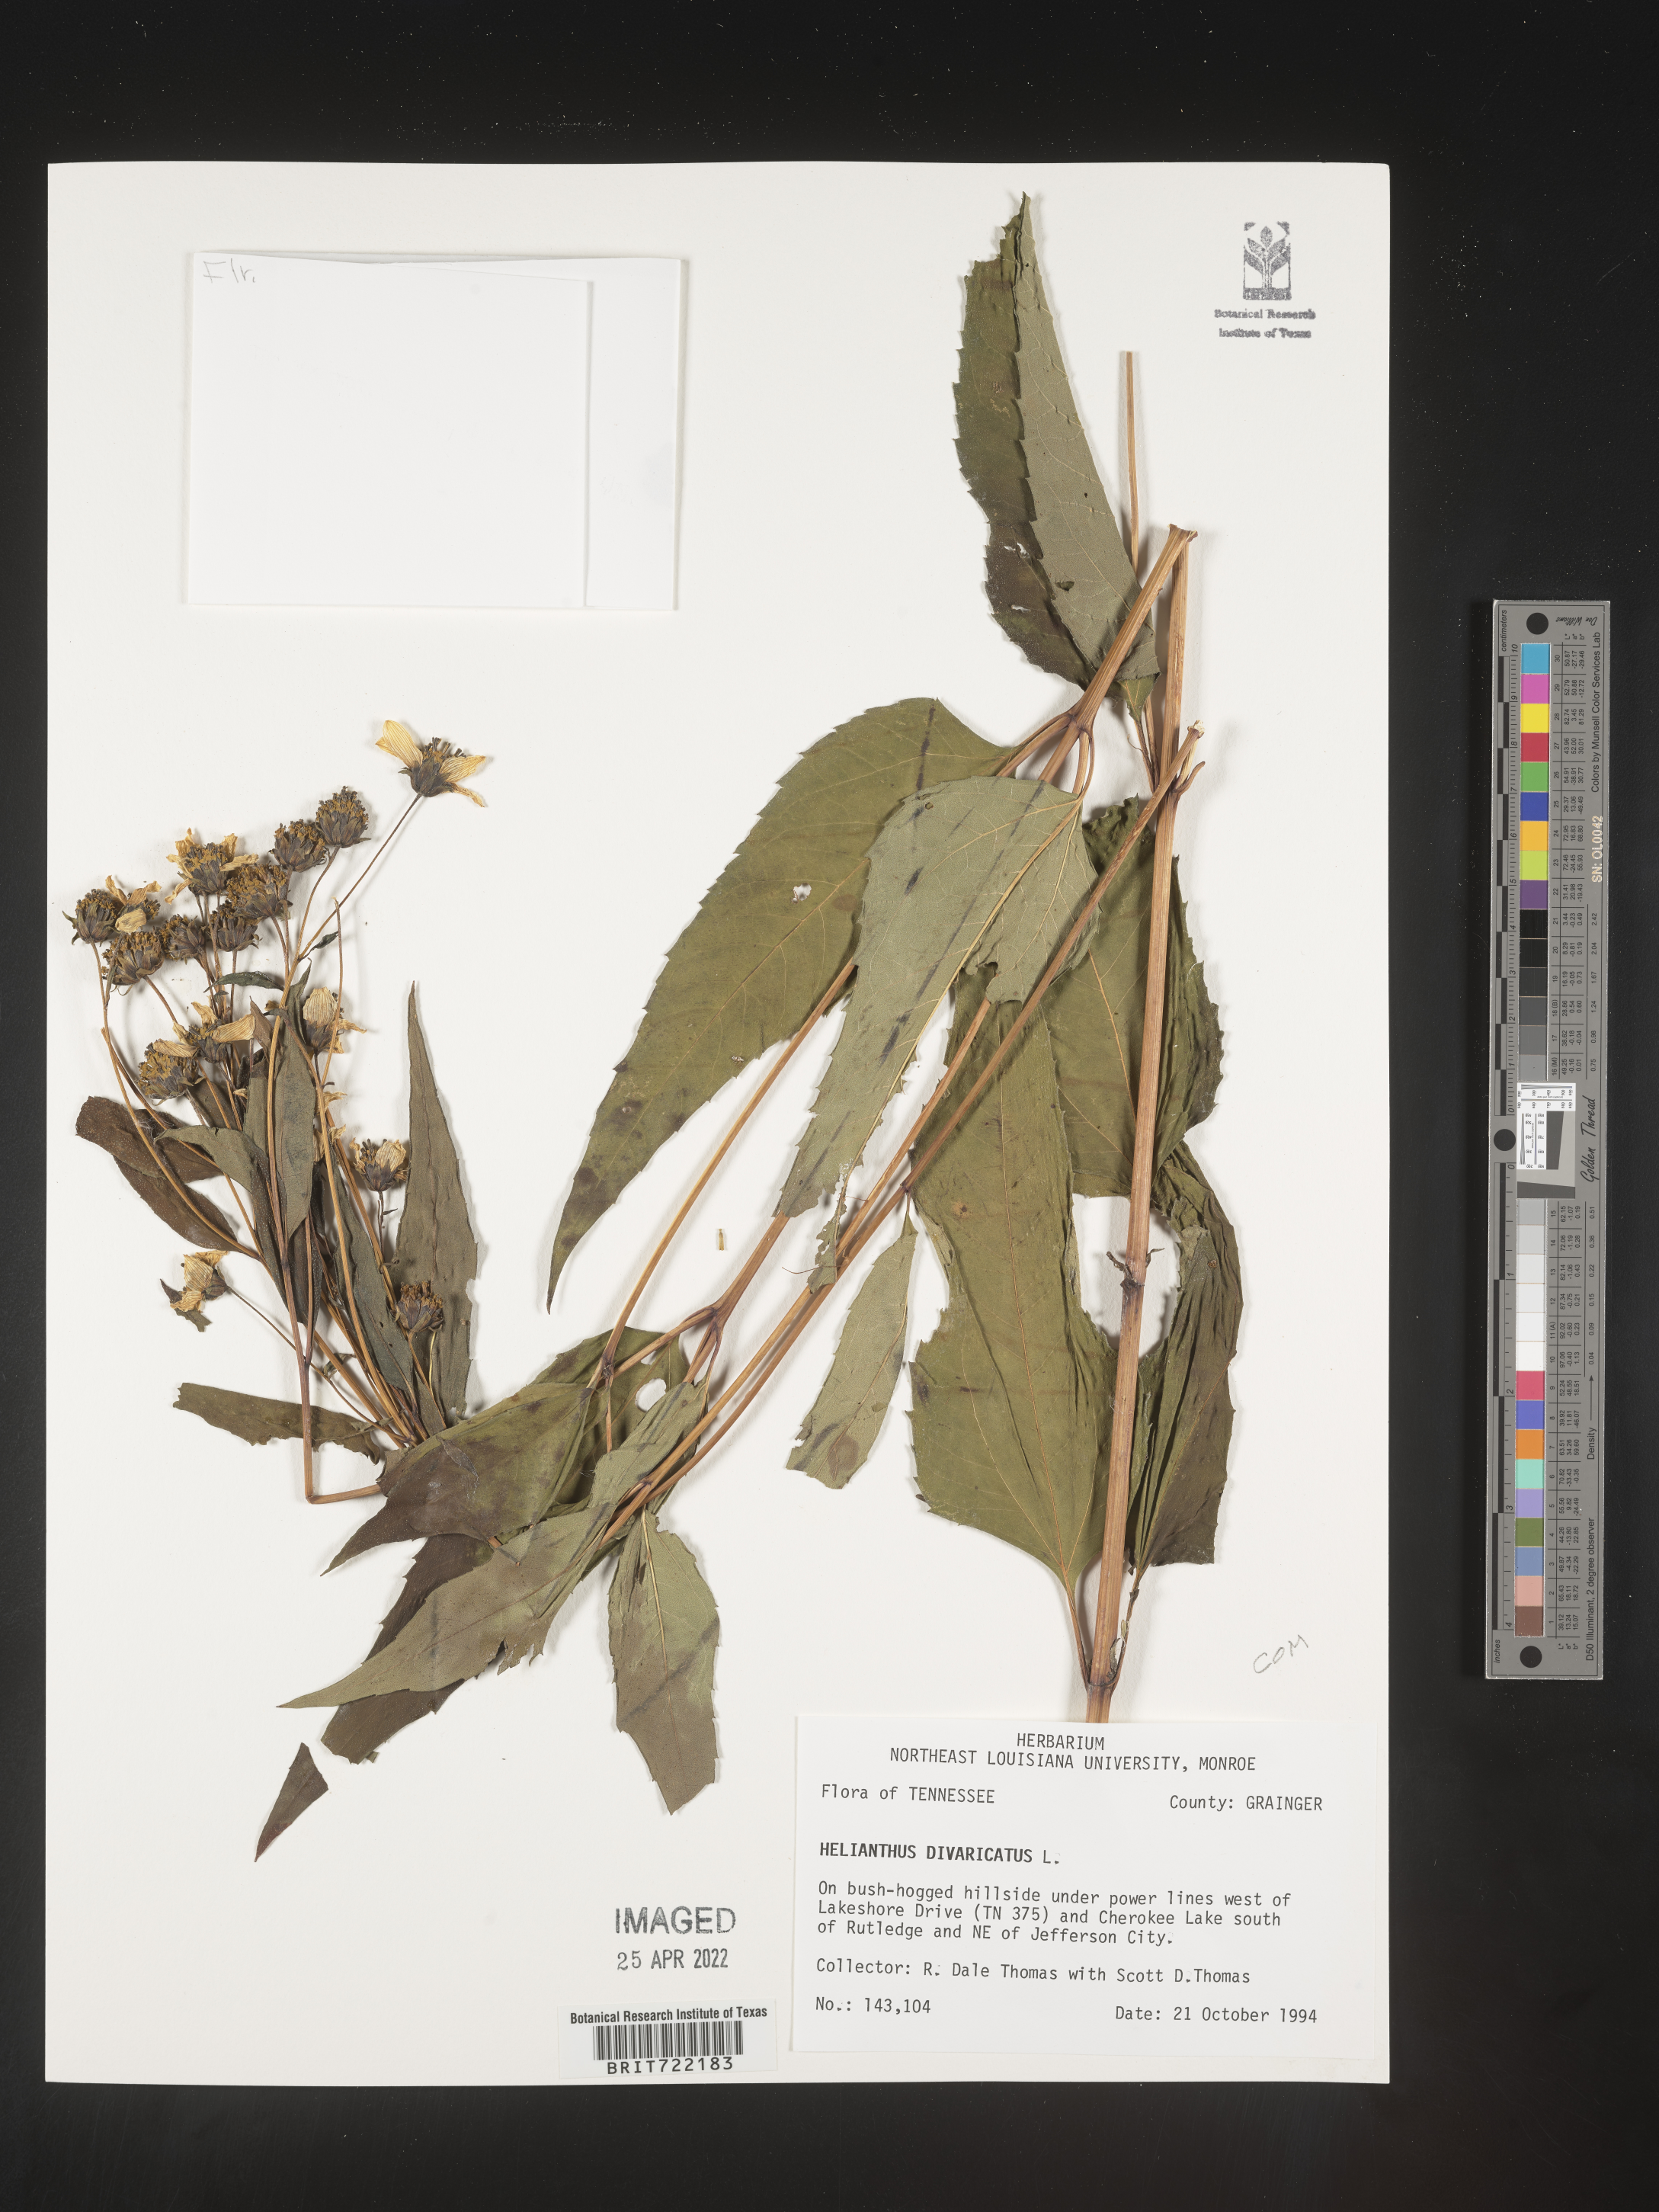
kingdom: Plantae
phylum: Tracheophyta
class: Magnoliopsida
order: Asterales
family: Asteraceae
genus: Helianthus
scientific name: Helianthus divaricatus
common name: Divergent sunflower
